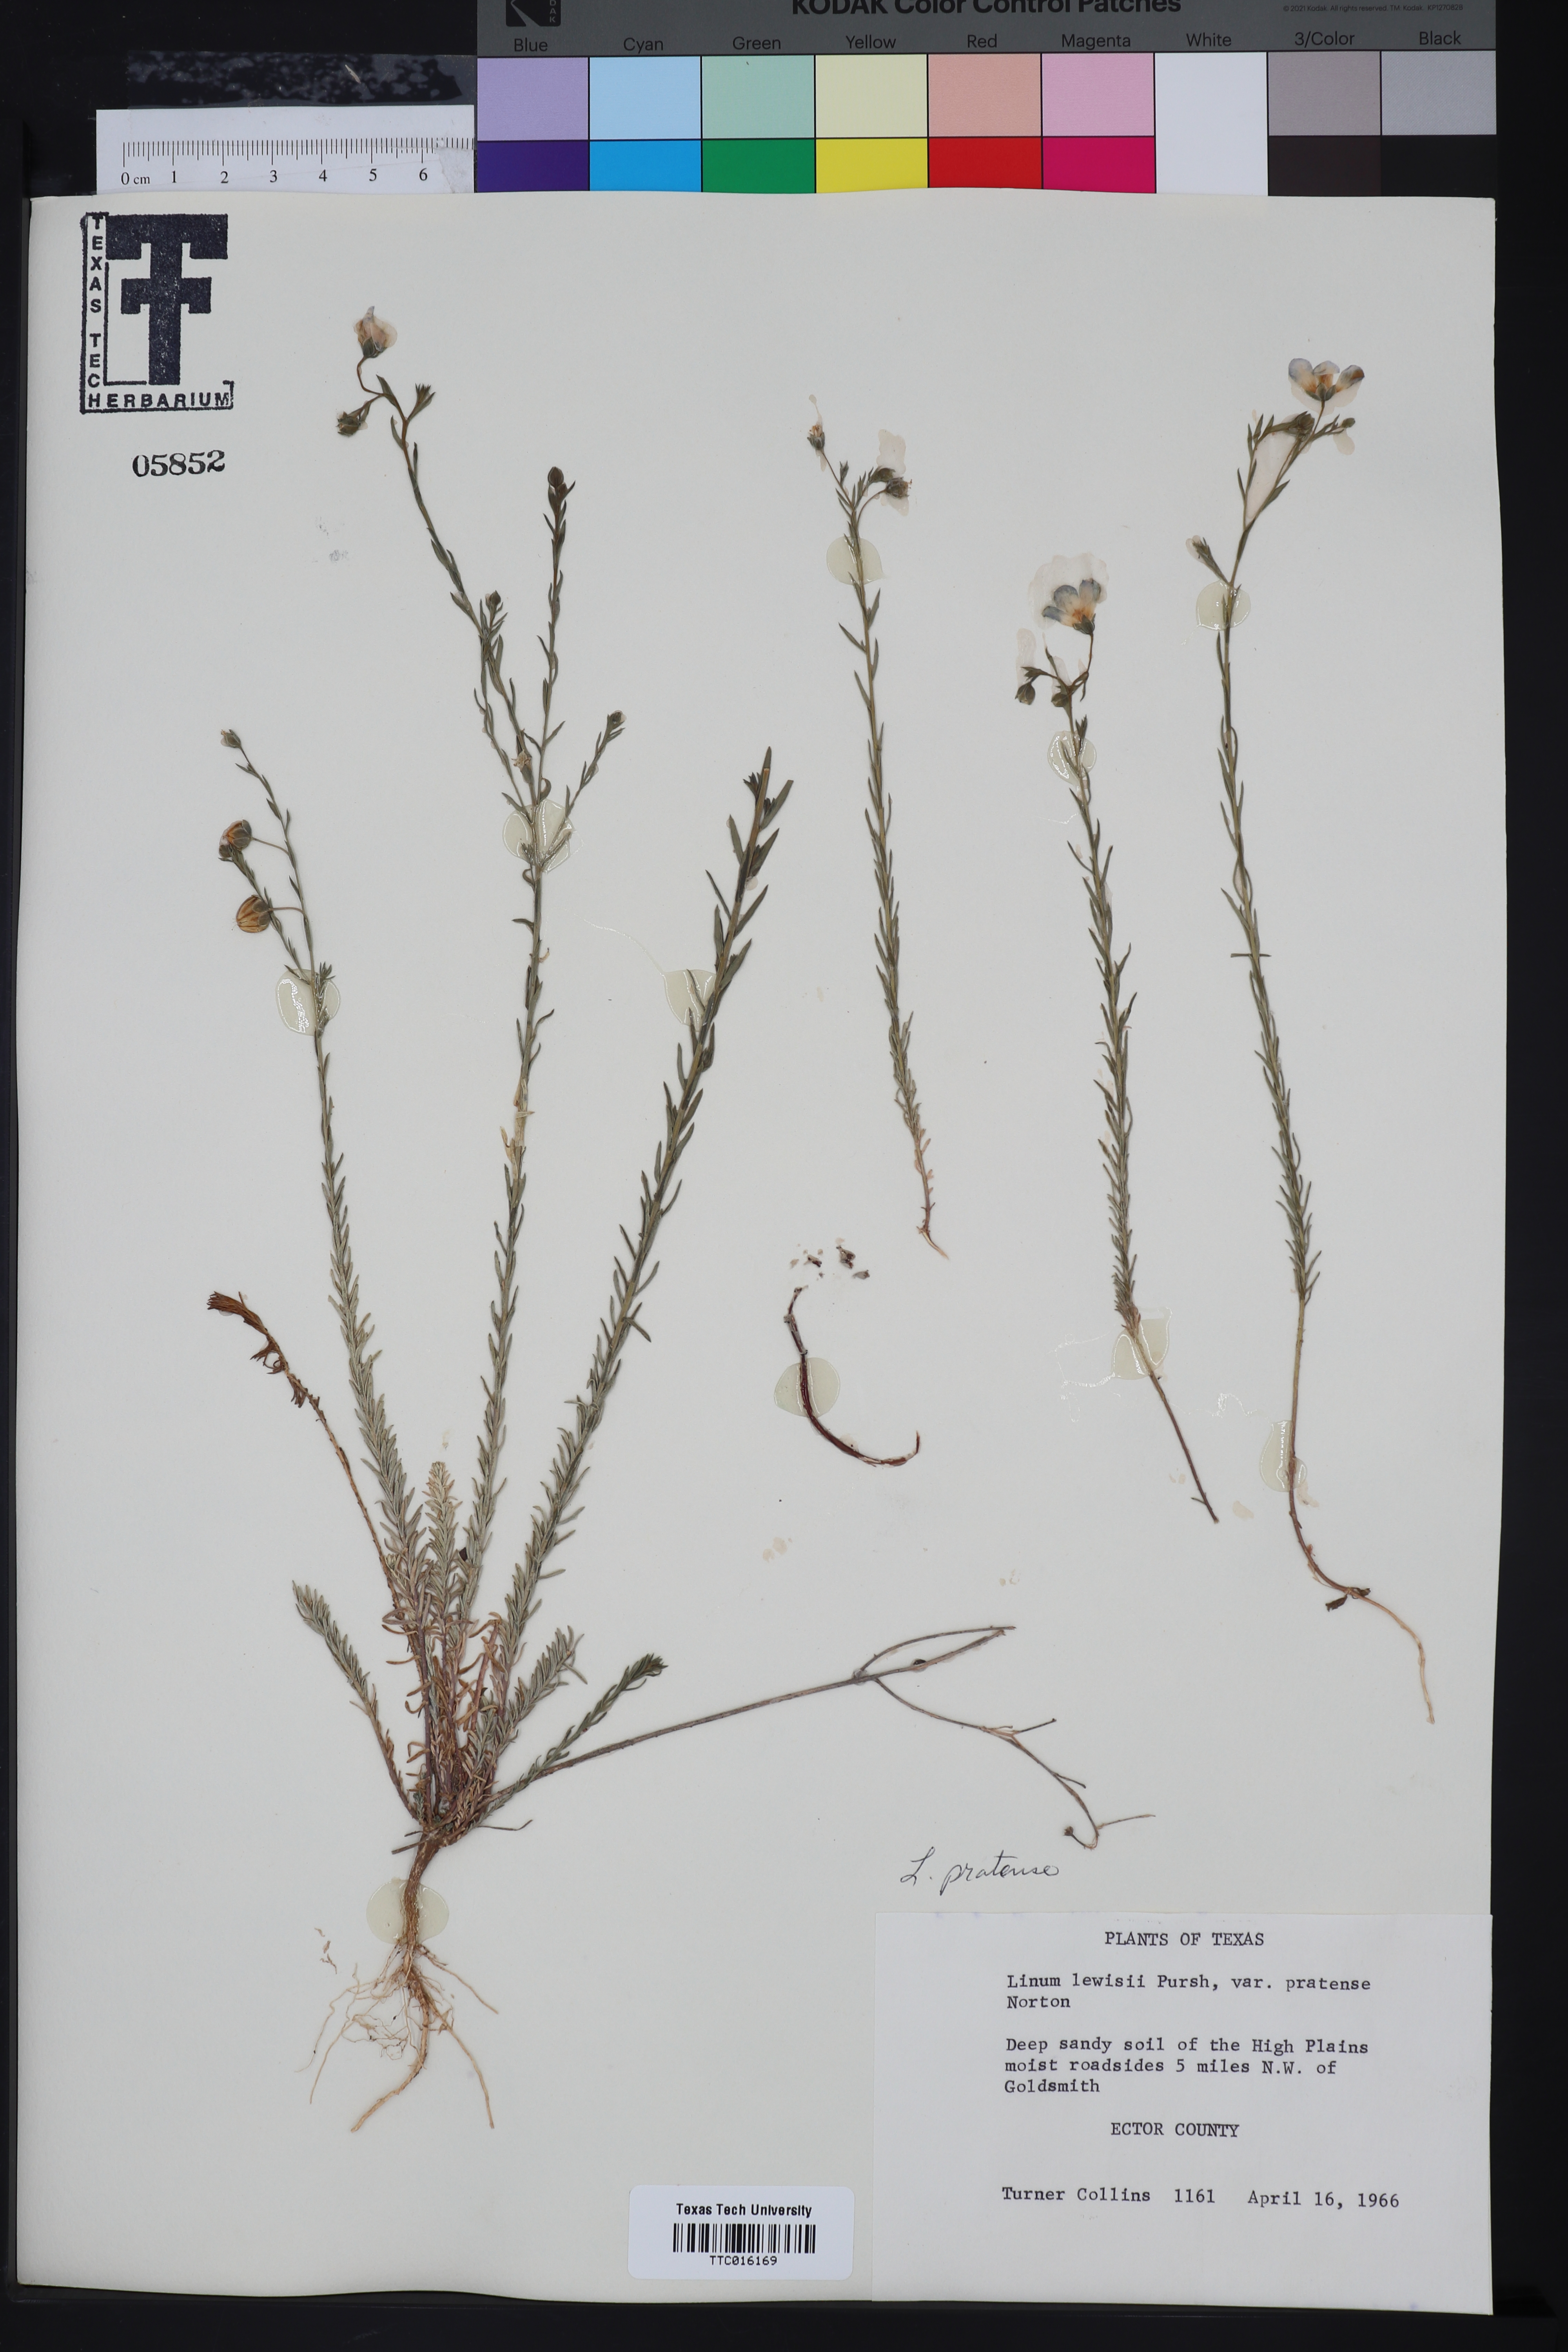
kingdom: Plantae
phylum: Tracheophyta
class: Magnoliopsida
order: Malpighiales
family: Linaceae
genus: Linum
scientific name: Linum pratense
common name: Norton's flax
